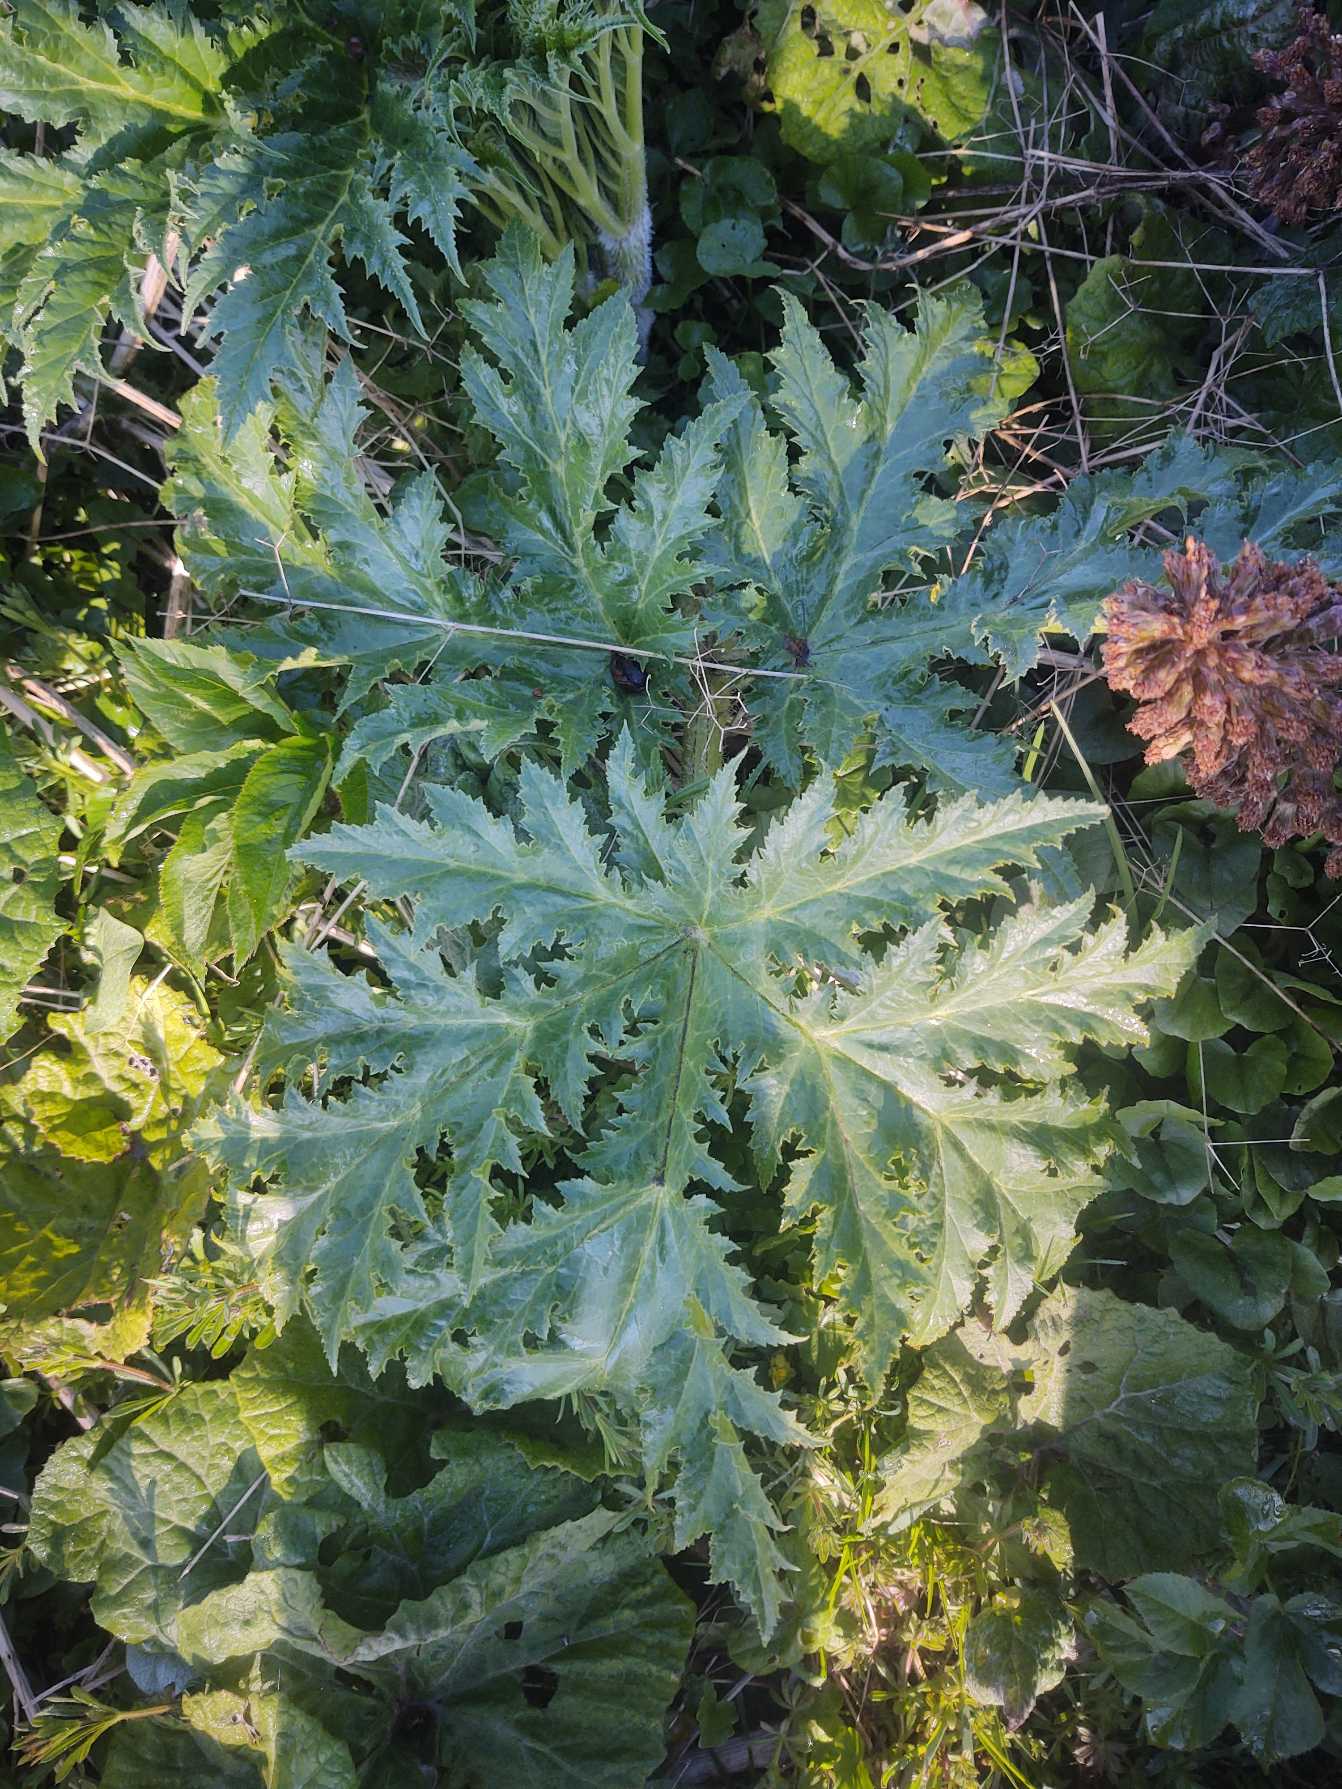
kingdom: Plantae
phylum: Tracheophyta
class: Magnoliopsida
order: Apiales
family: Apiaceae
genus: Heracleum
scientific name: Heracleum mantegazzianum
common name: Kæmpe-bjørneklo
